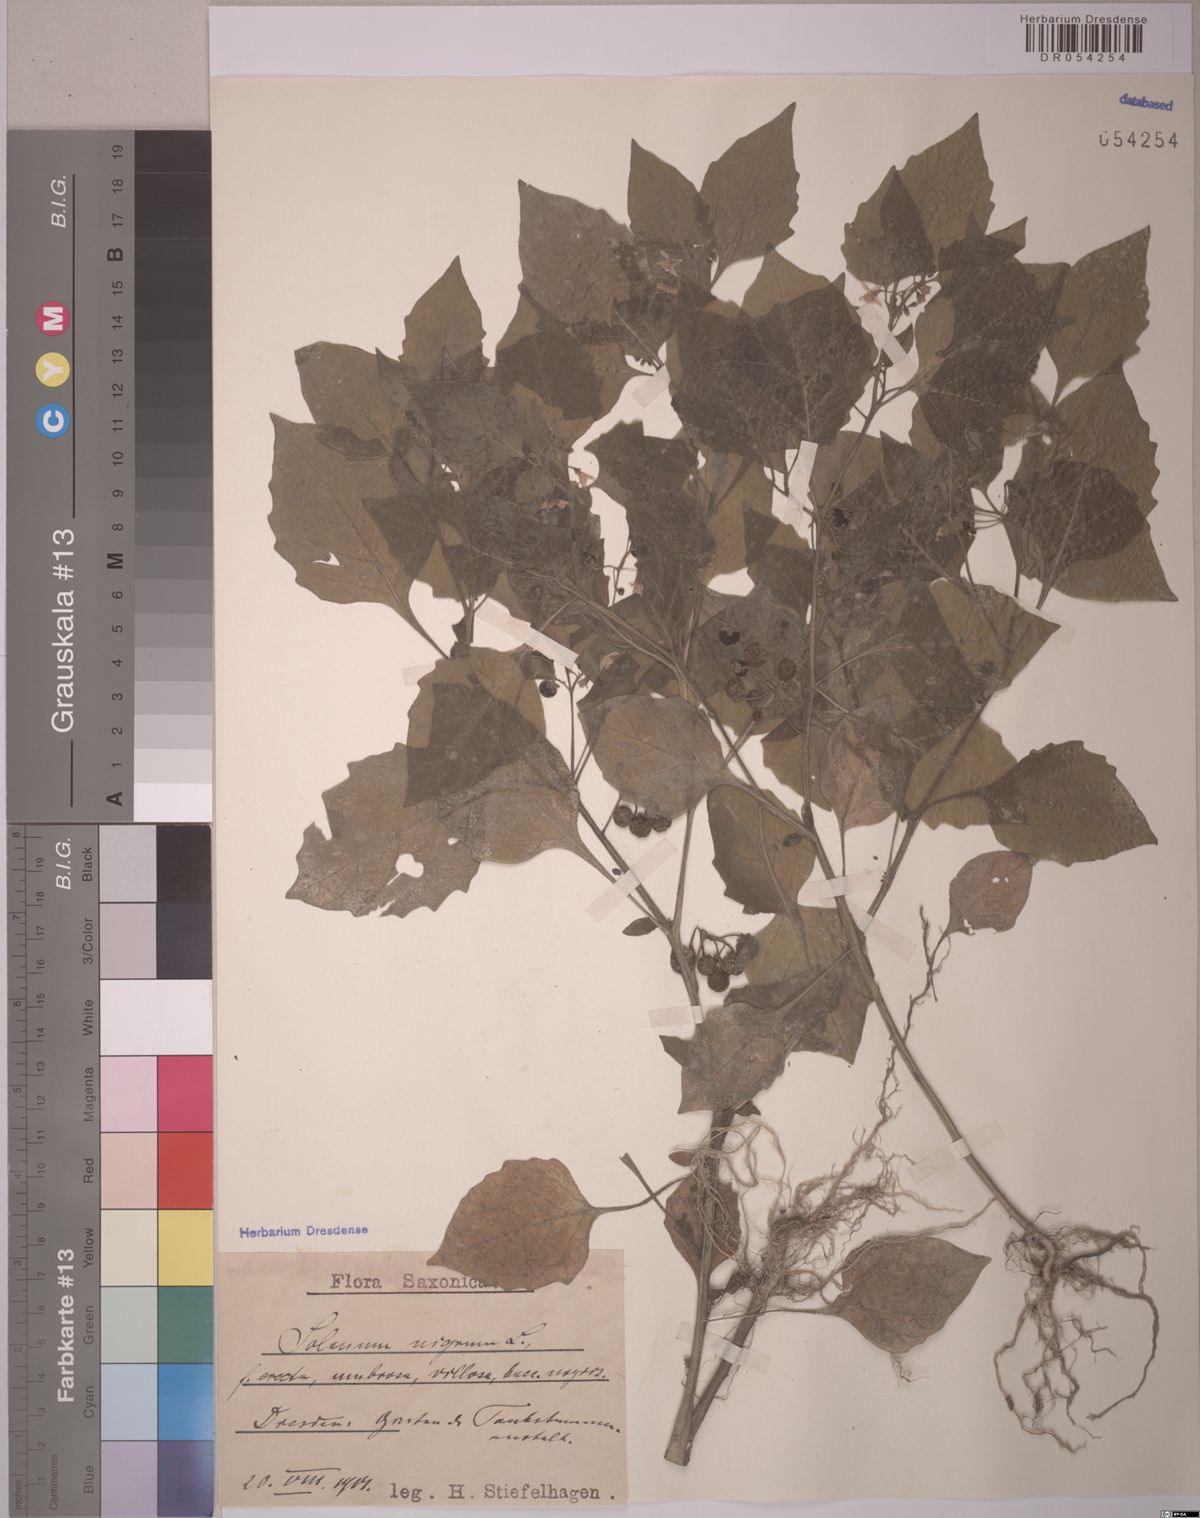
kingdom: Plantae
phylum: Tracheophyta
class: Magnoliopsida
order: Solanales
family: Solanaceae
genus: Solanum
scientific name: Solanum nigrum
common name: Black nightshade
